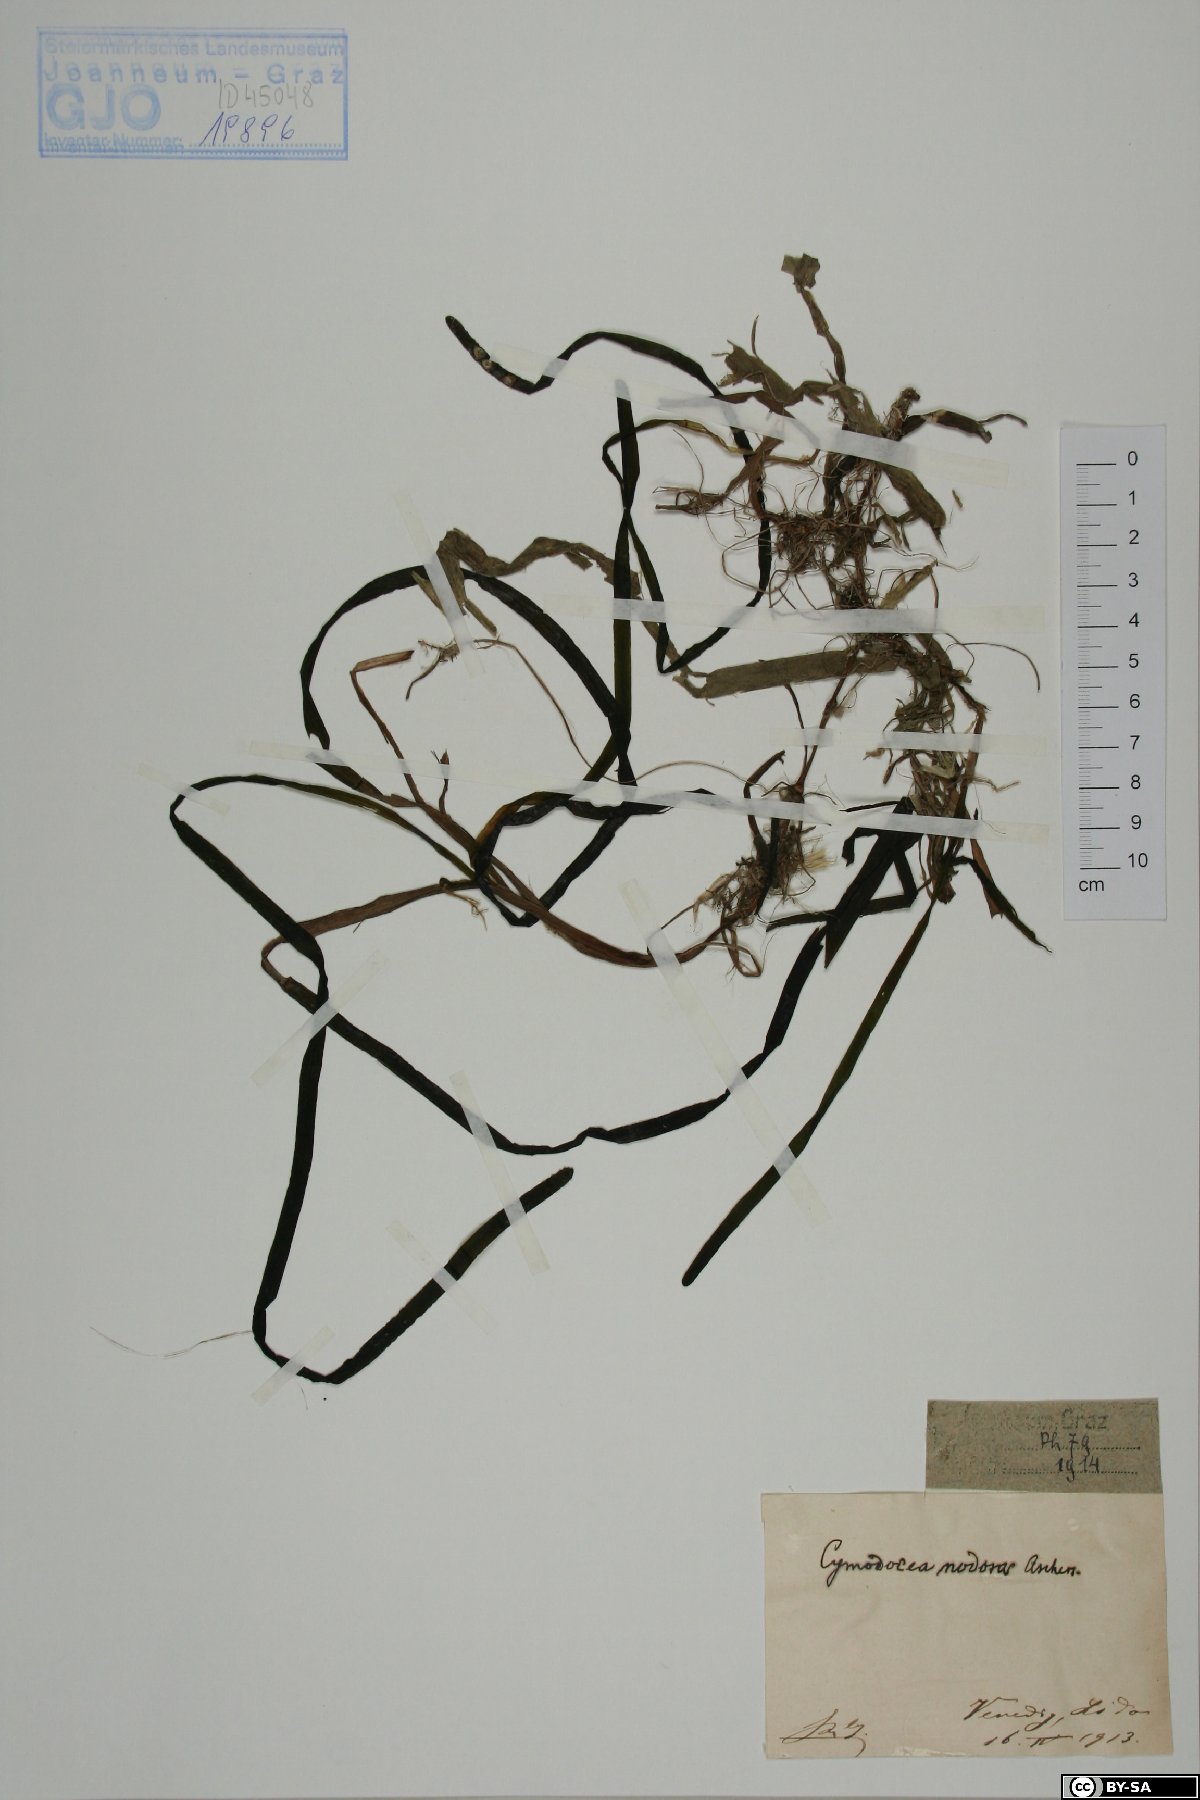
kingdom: Plantae
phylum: Tracheophyta
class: Liliopsida
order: Alismatales
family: Cymodoceaceae
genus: Cymodocea
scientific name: Cymodocea nodosa
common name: Slender seagrass
